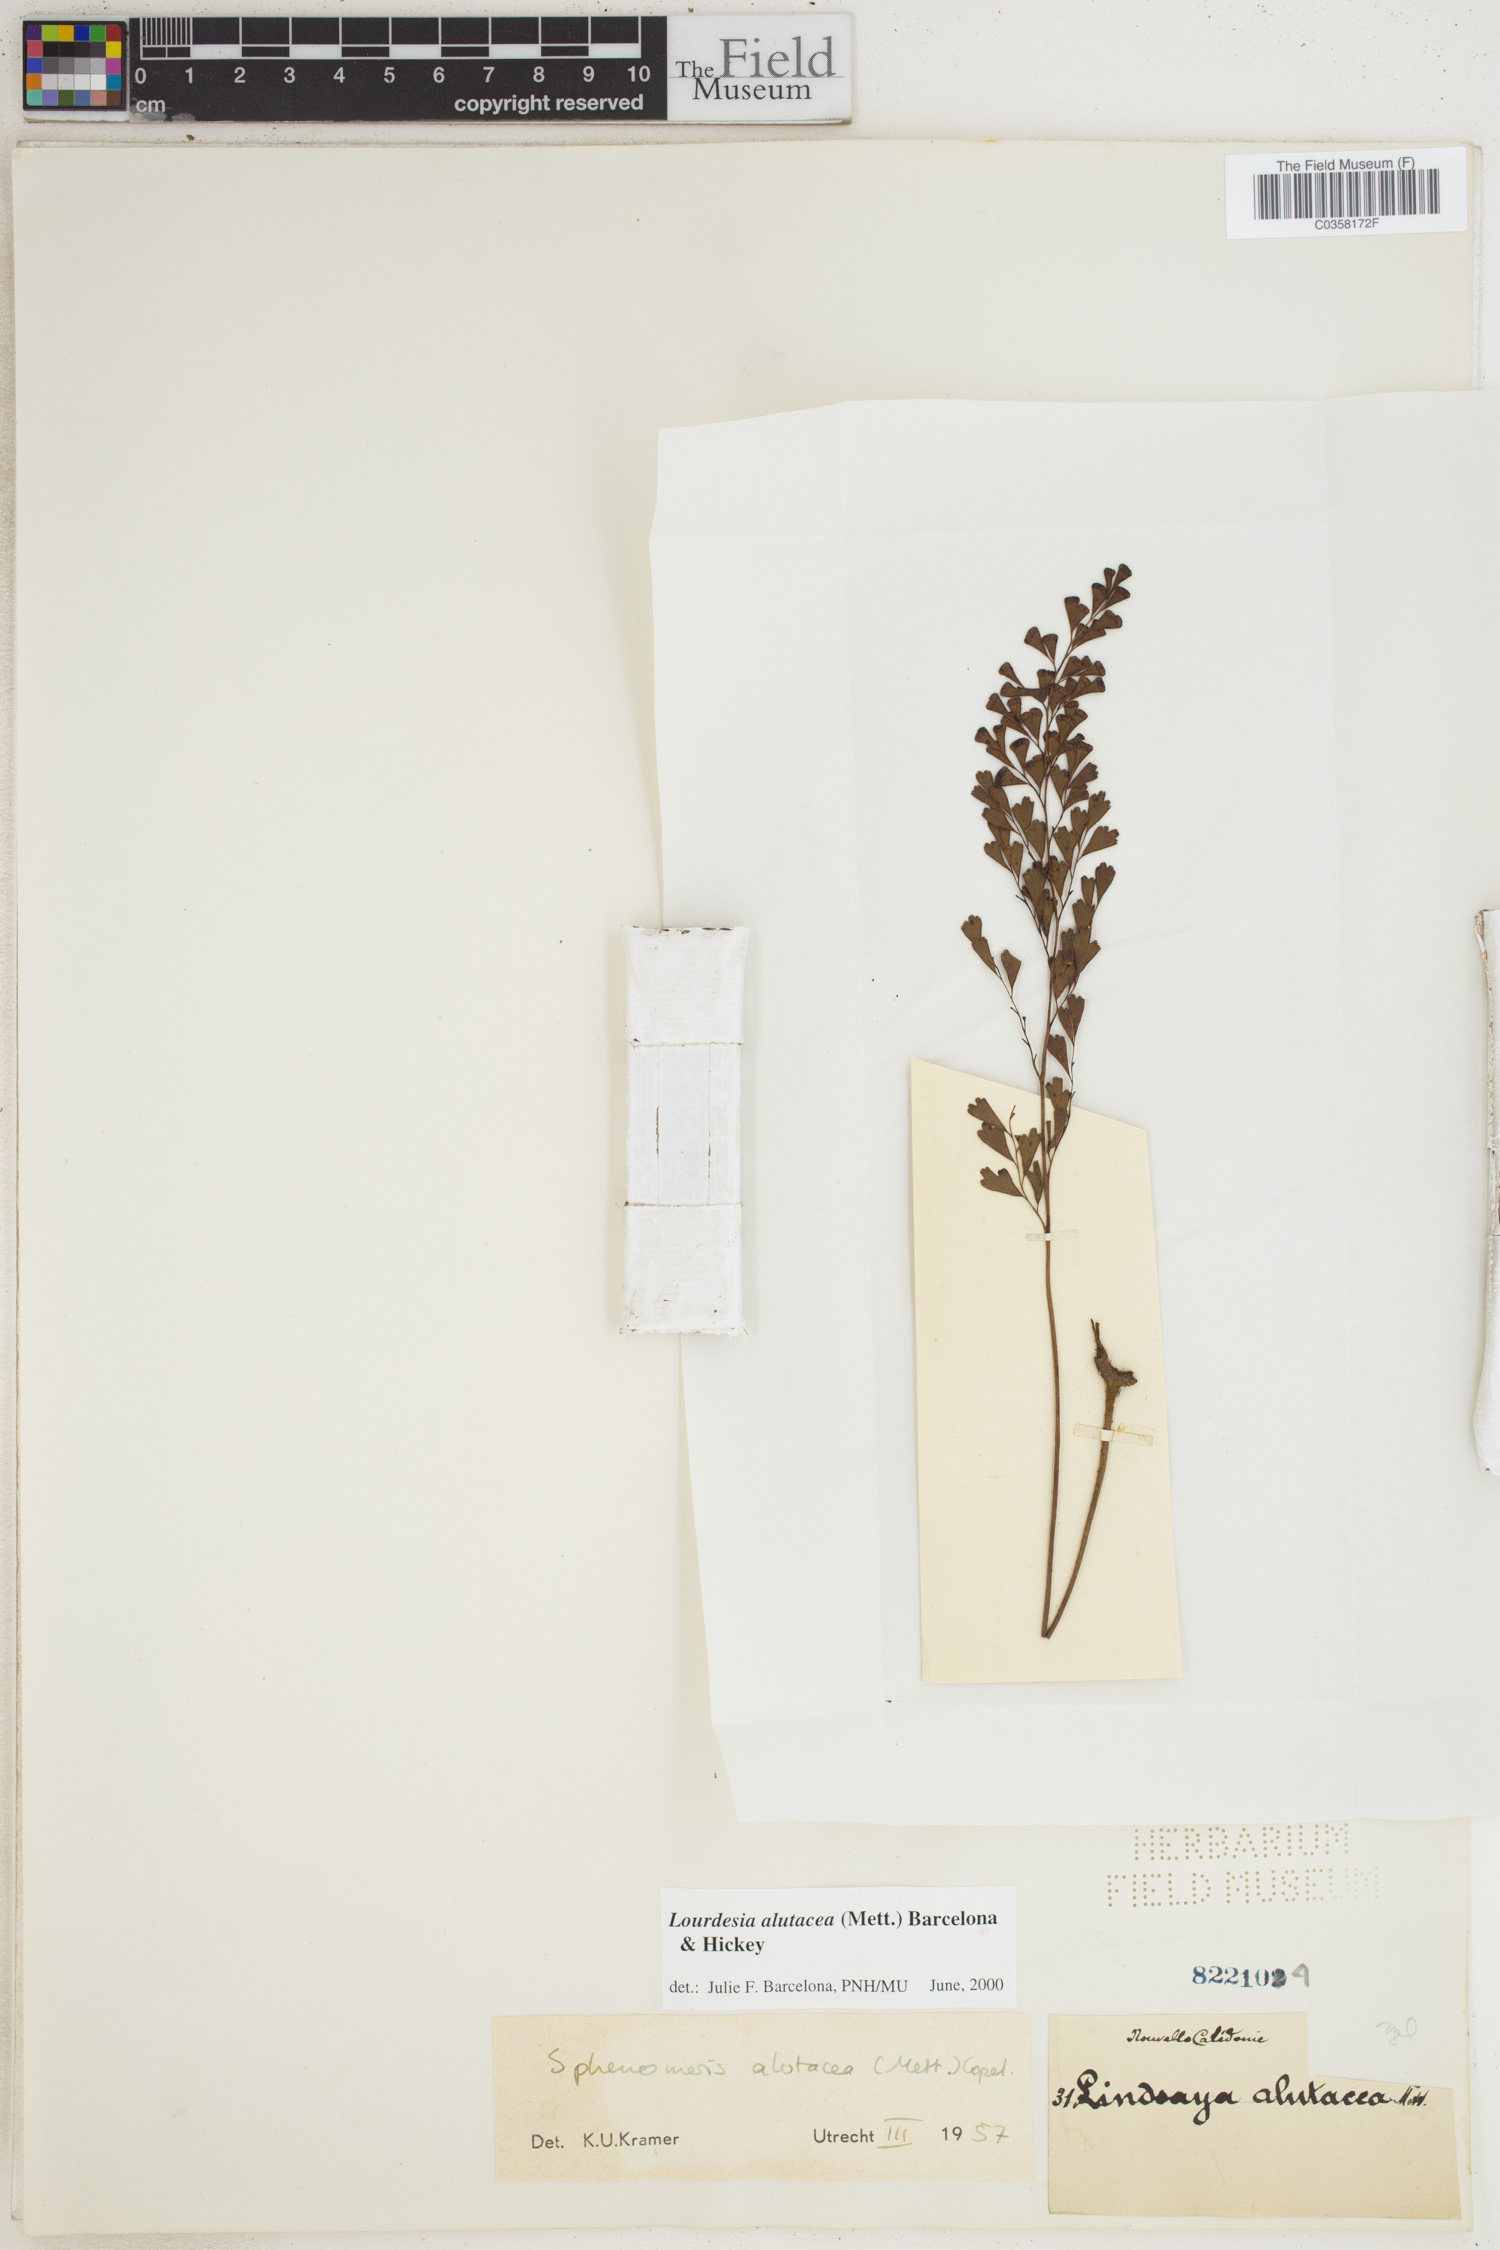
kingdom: Plantae
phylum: Tracheophyta
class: Polypodiopsida
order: Polypodiales
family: Lindsaeaceae
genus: Odontosoria
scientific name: Odontosoria alutacea
